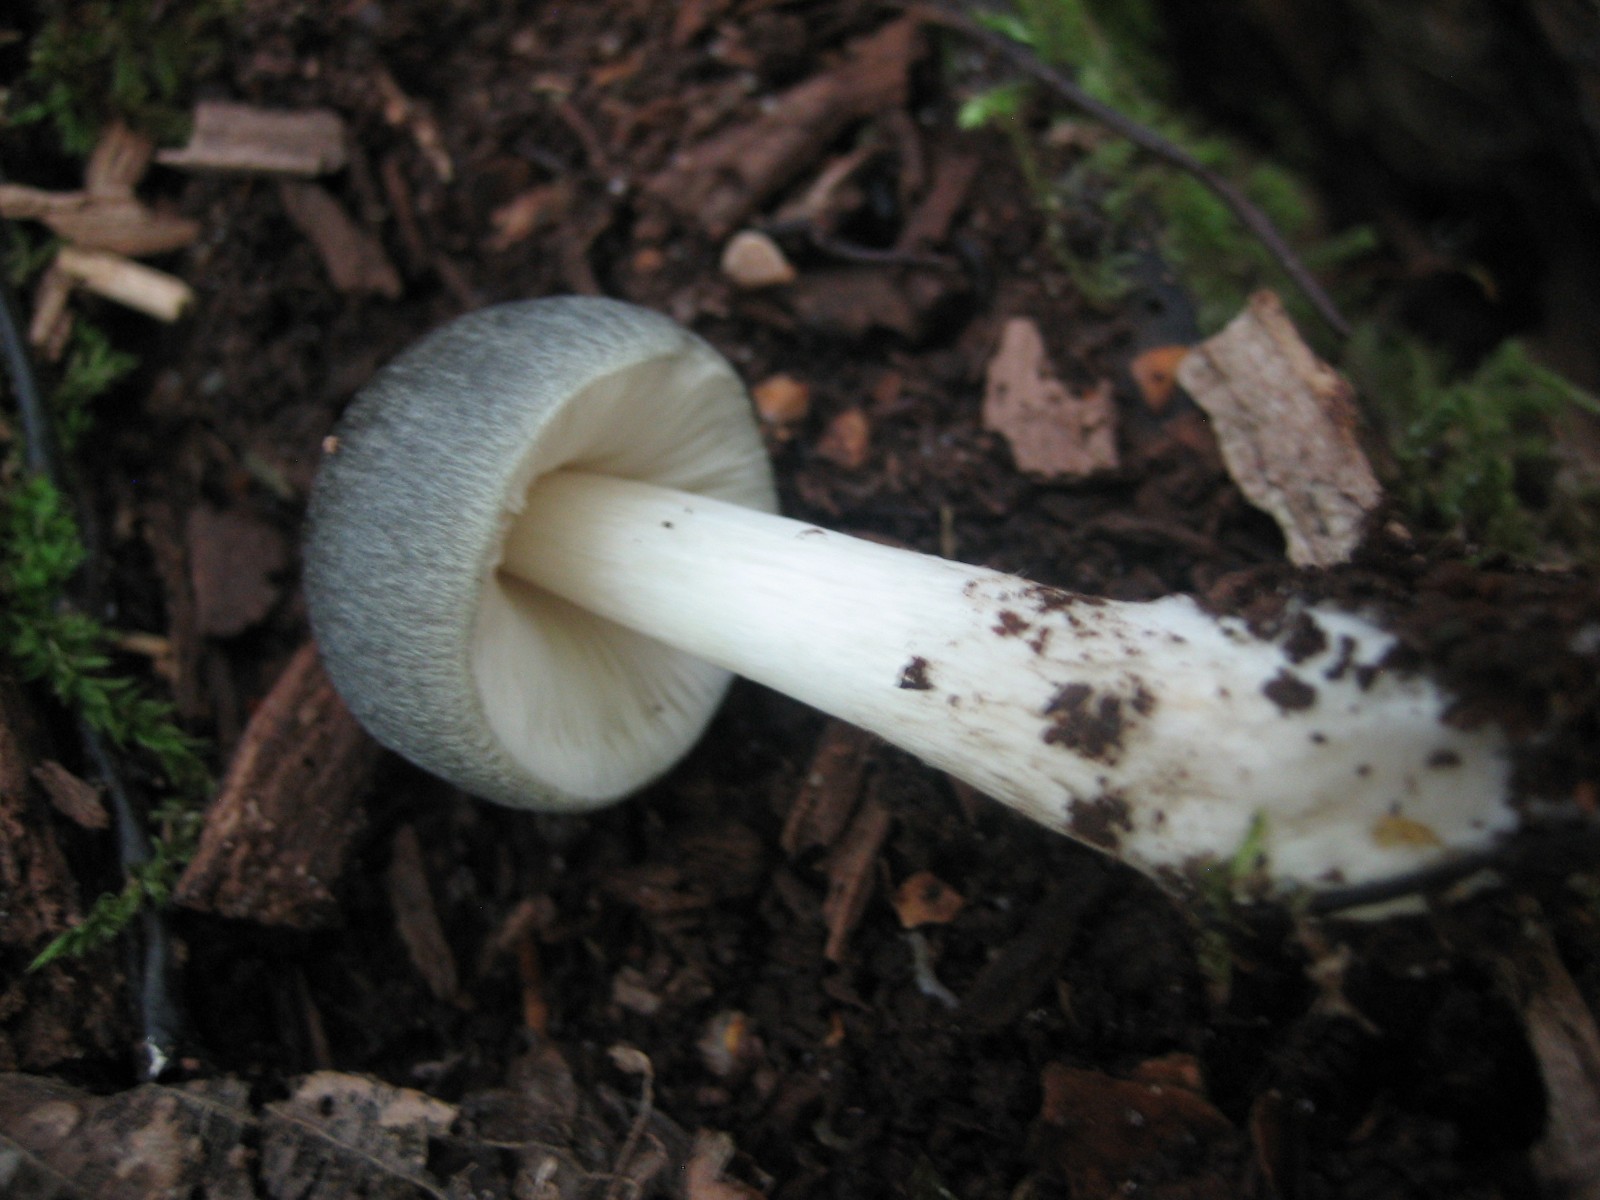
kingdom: Fungi
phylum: Basidiomycota
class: Agaricomycetes
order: Agaricales
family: Pluteaceae
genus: Pluteus
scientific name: Pluteus salicinus
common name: stiv skærmhat
